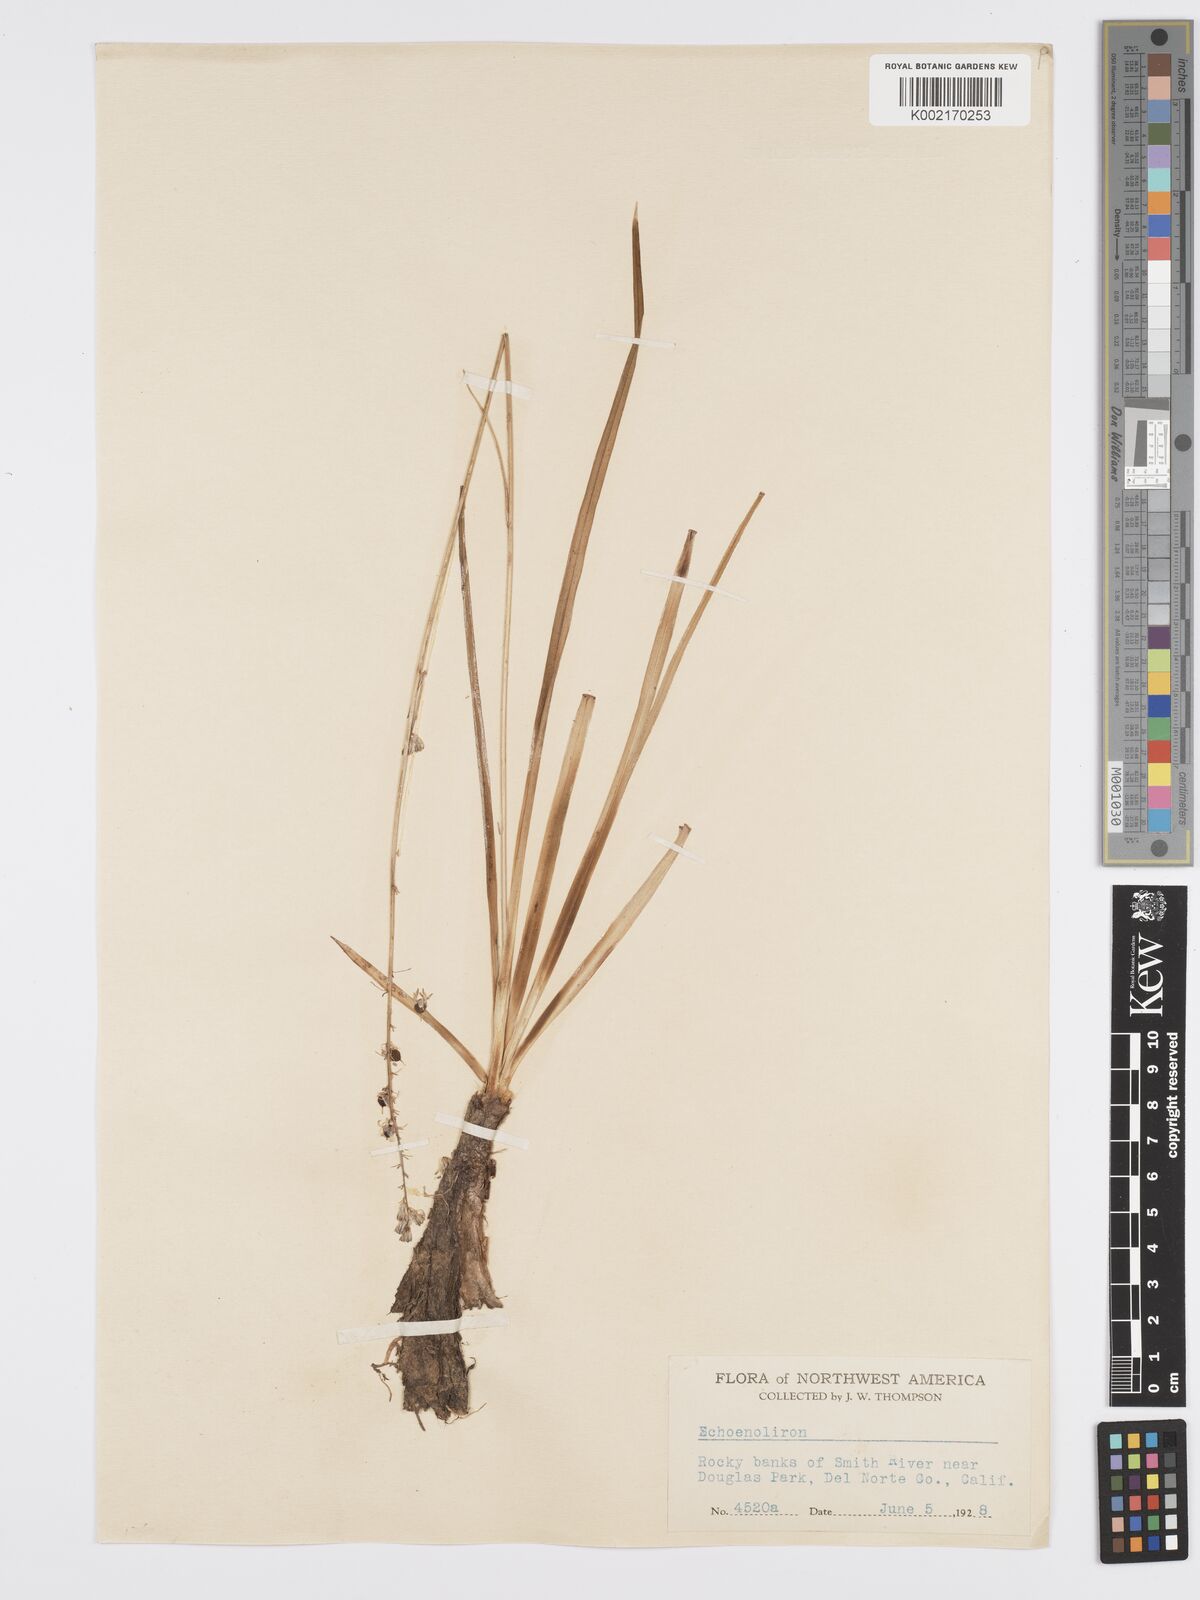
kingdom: Plantae
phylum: Tracheophyta
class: Liliopsida
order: Asparagales
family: Asparagaceae
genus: Hastingsia
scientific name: Hastingsia alba
